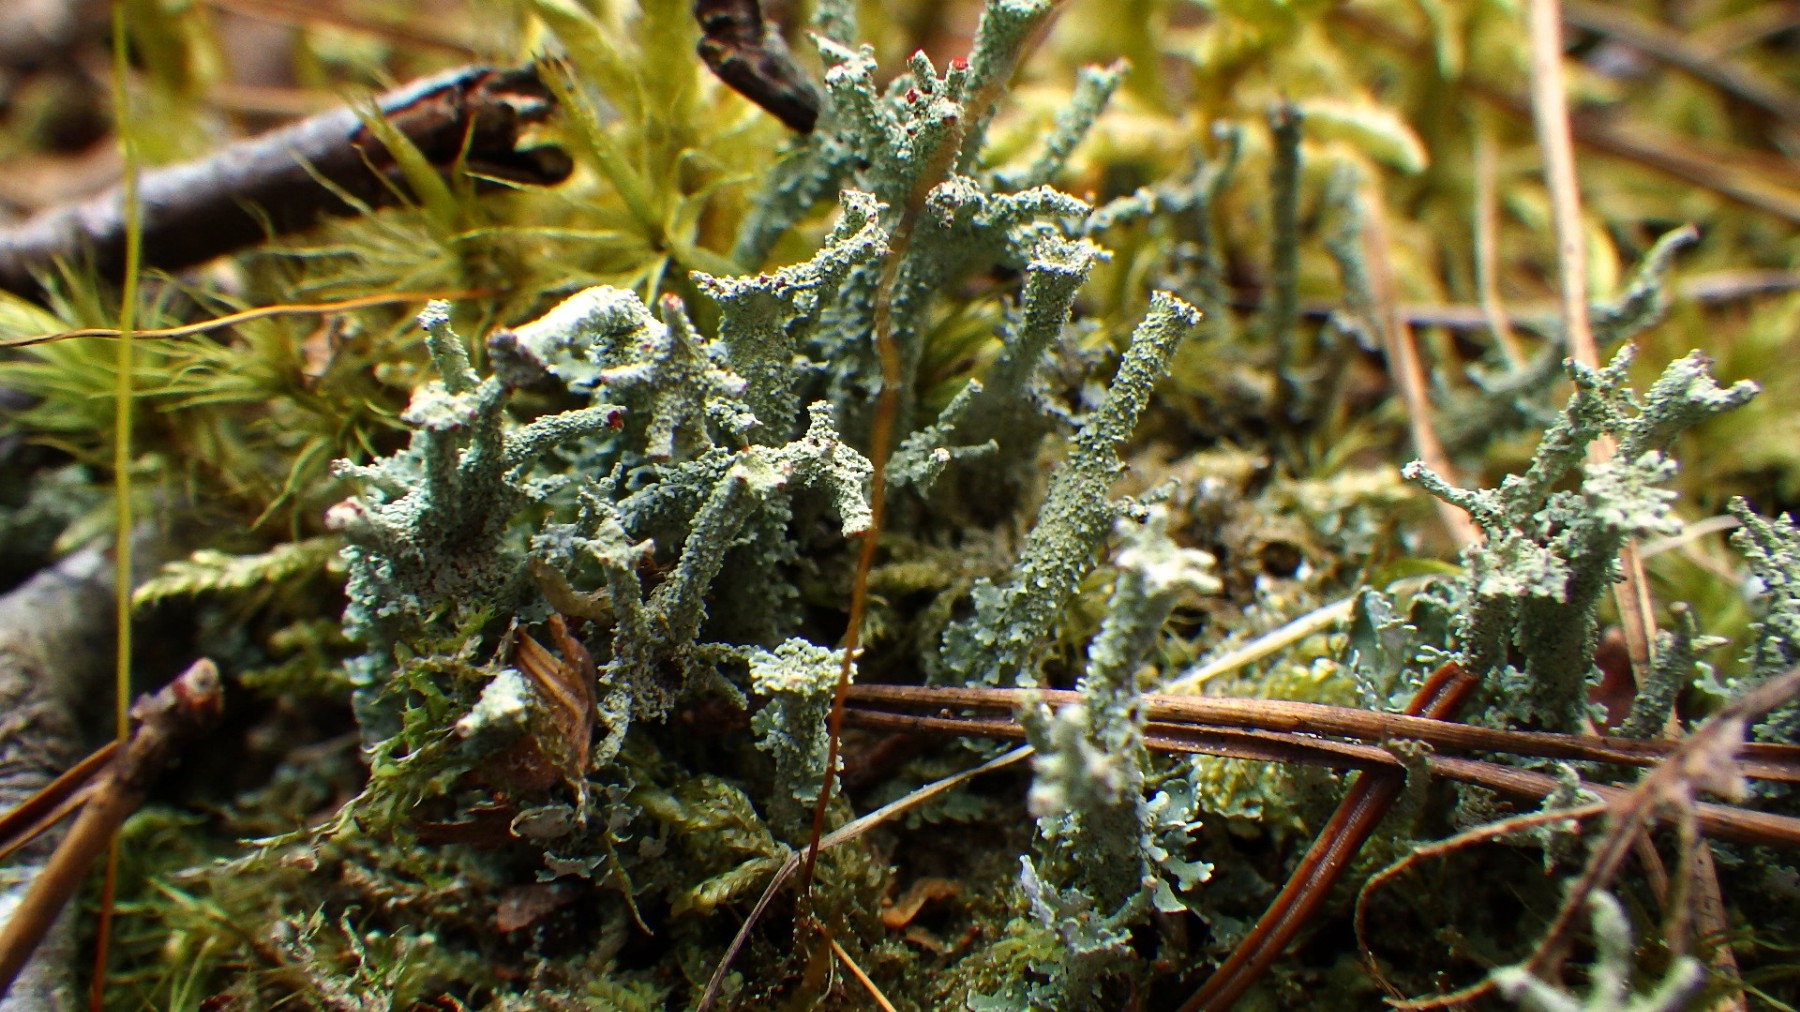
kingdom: Fungi
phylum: Ascomycota
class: Lecanoromycetes
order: Lecanorales
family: Cladoniaceae
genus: Cladonia
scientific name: Cladonia polydactyla
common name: vifte-bægerlav
